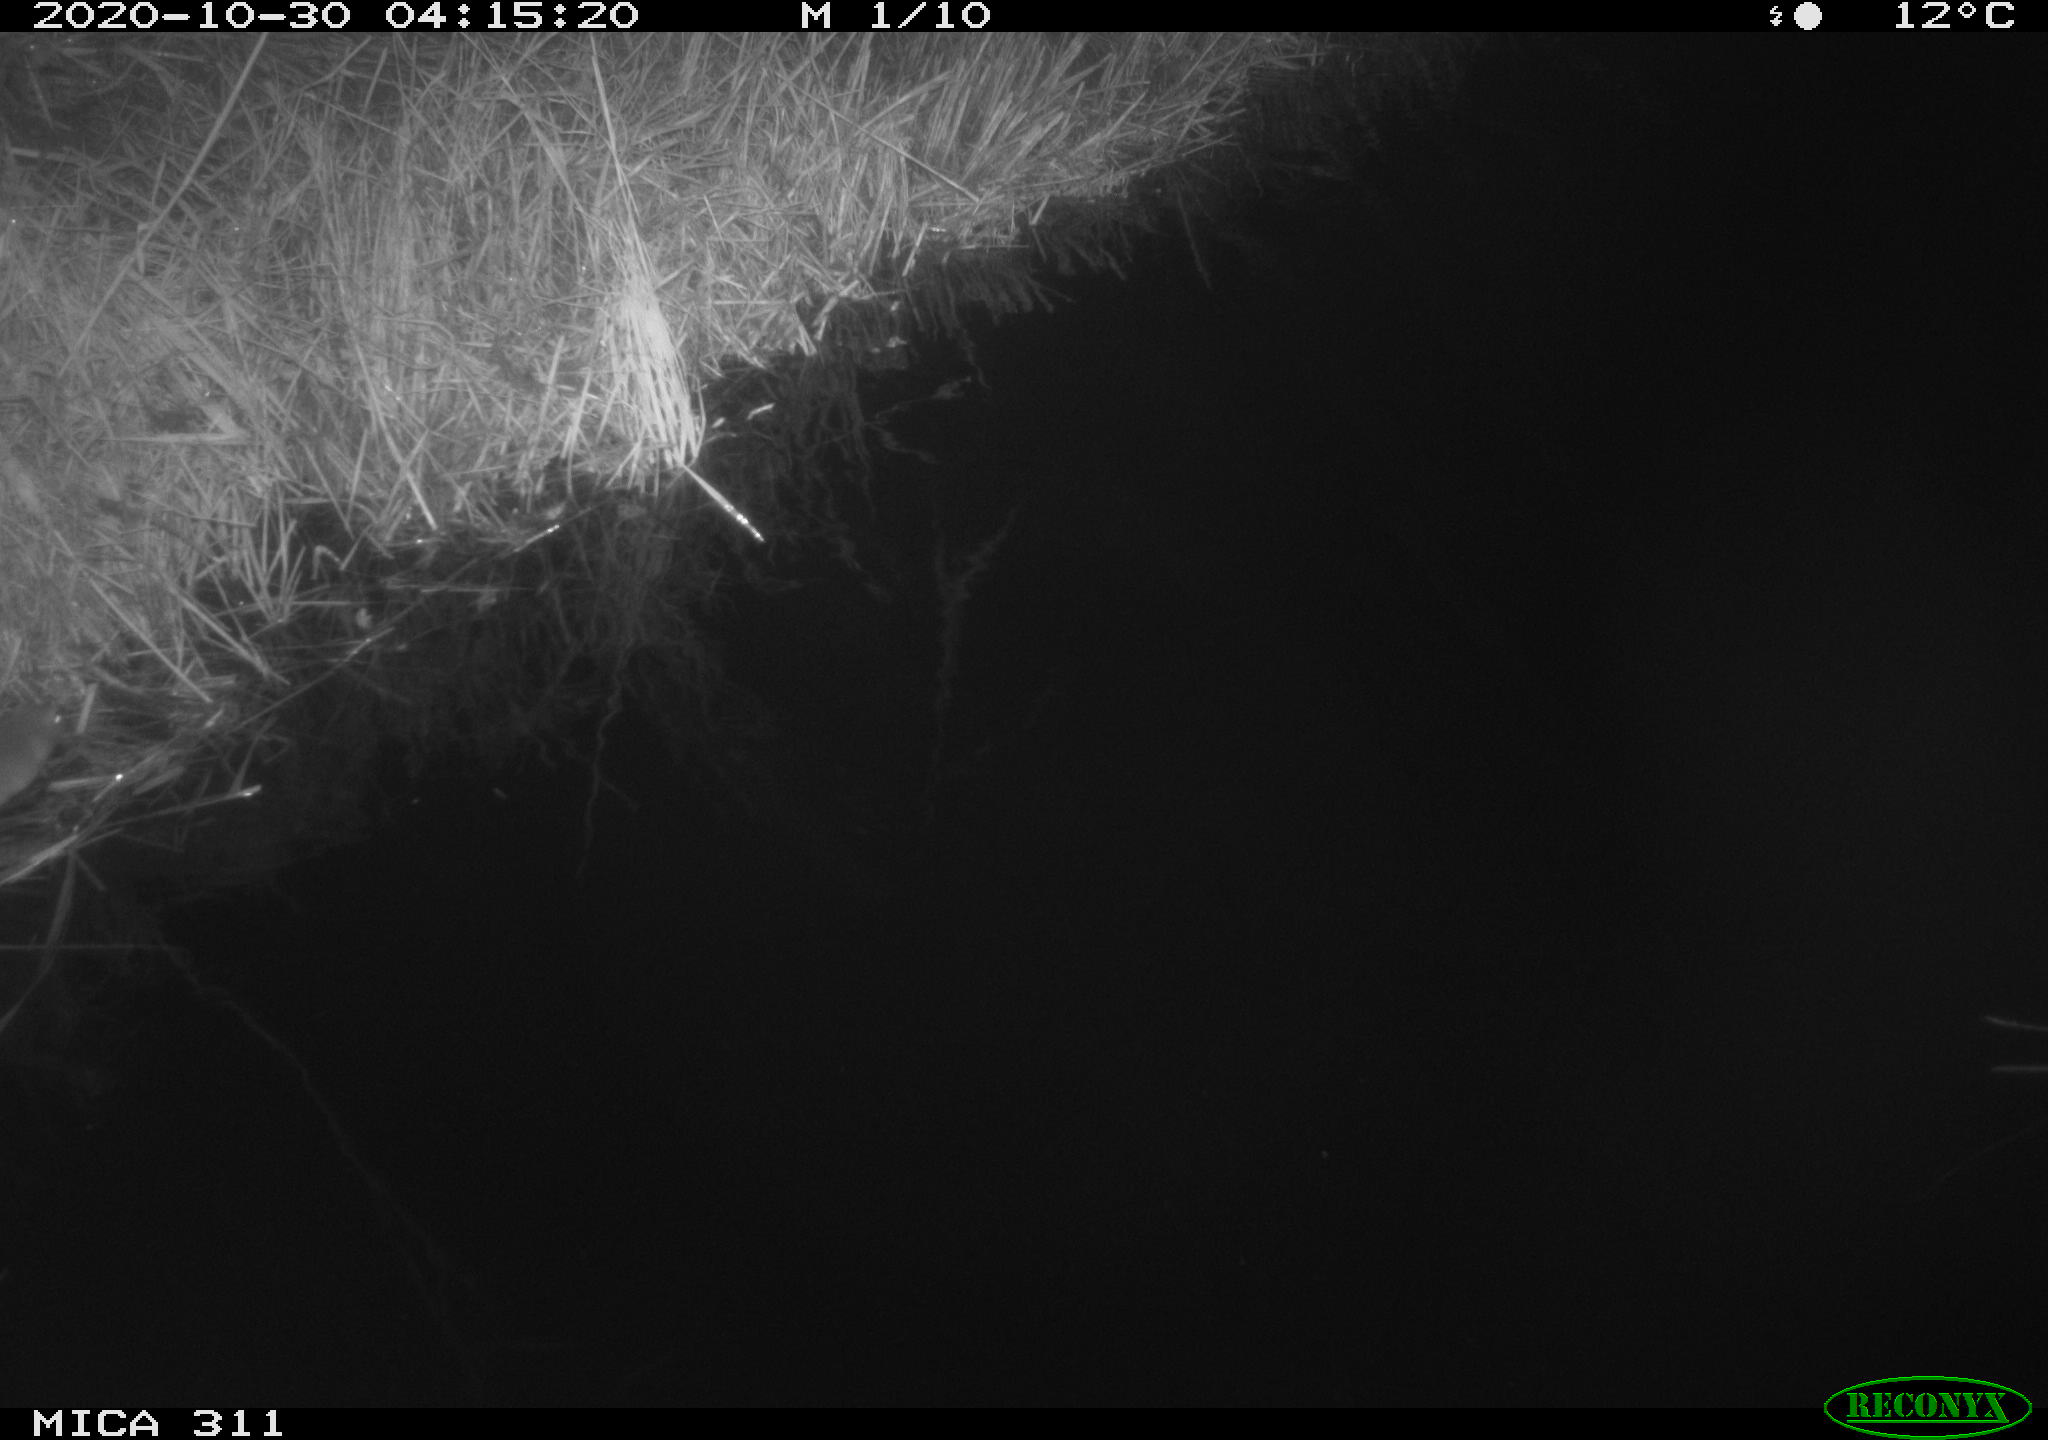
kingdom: Animalia
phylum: Chordata
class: Mammalia
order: Rodentia
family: Muridae
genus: Rattus
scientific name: Rattus norvegicus
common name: Brown rat
